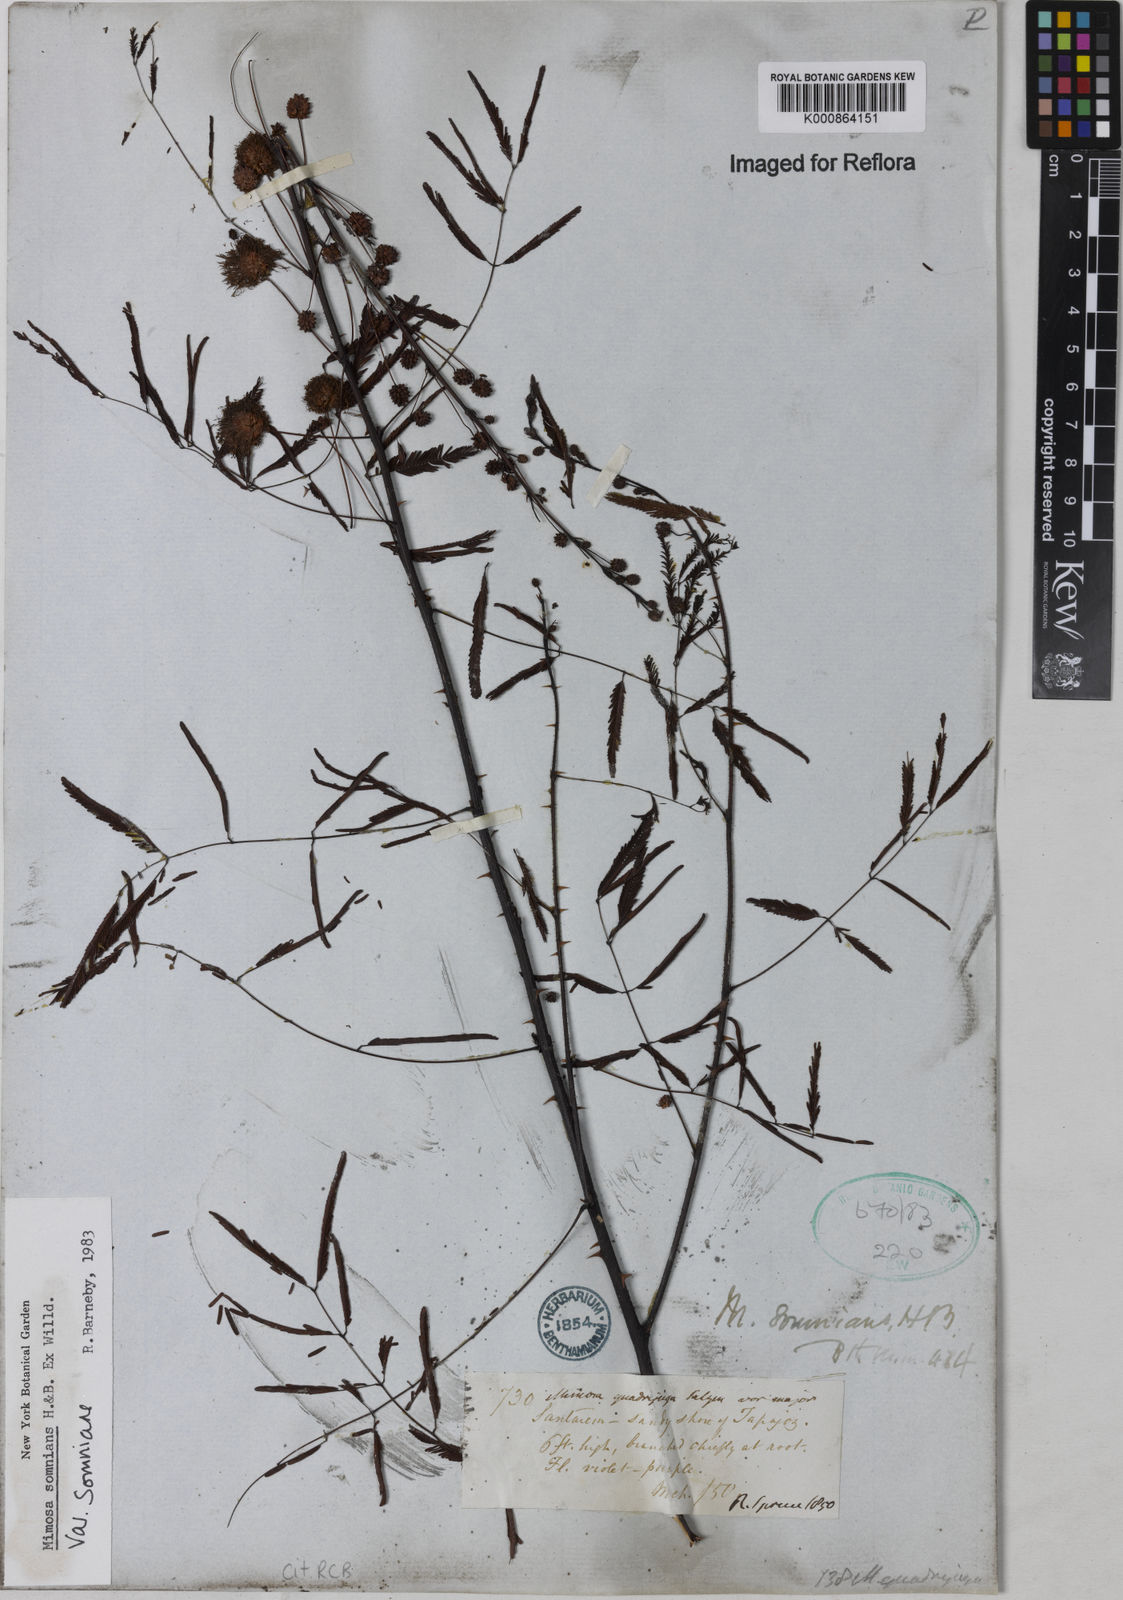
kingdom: Plantae
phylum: Tracheophyta
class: Magnoliopsida
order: Fabales
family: Fabaceae
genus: Mimosa
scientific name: Mimosa somnians
